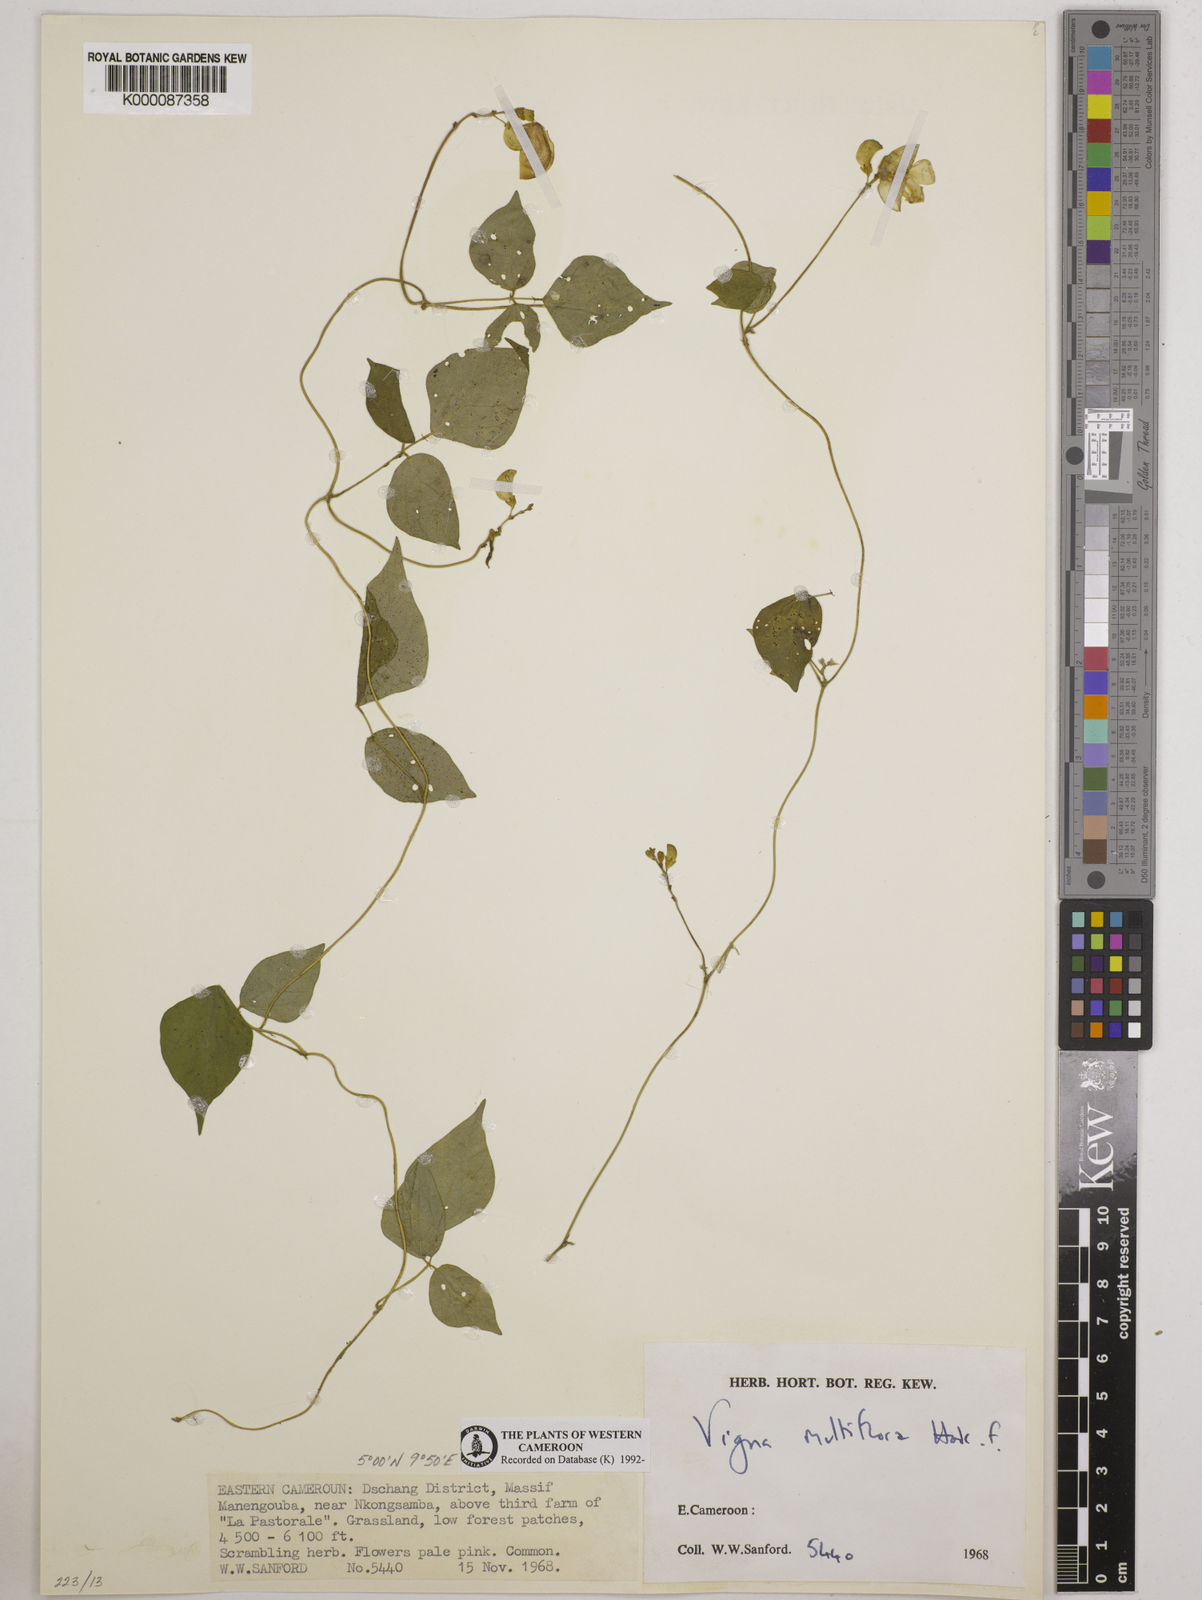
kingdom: Plantae
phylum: Tracheophyta
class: Magnoliopsida
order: Fabales
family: Fabaceae
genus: Vigna
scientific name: Vigna gracilis
